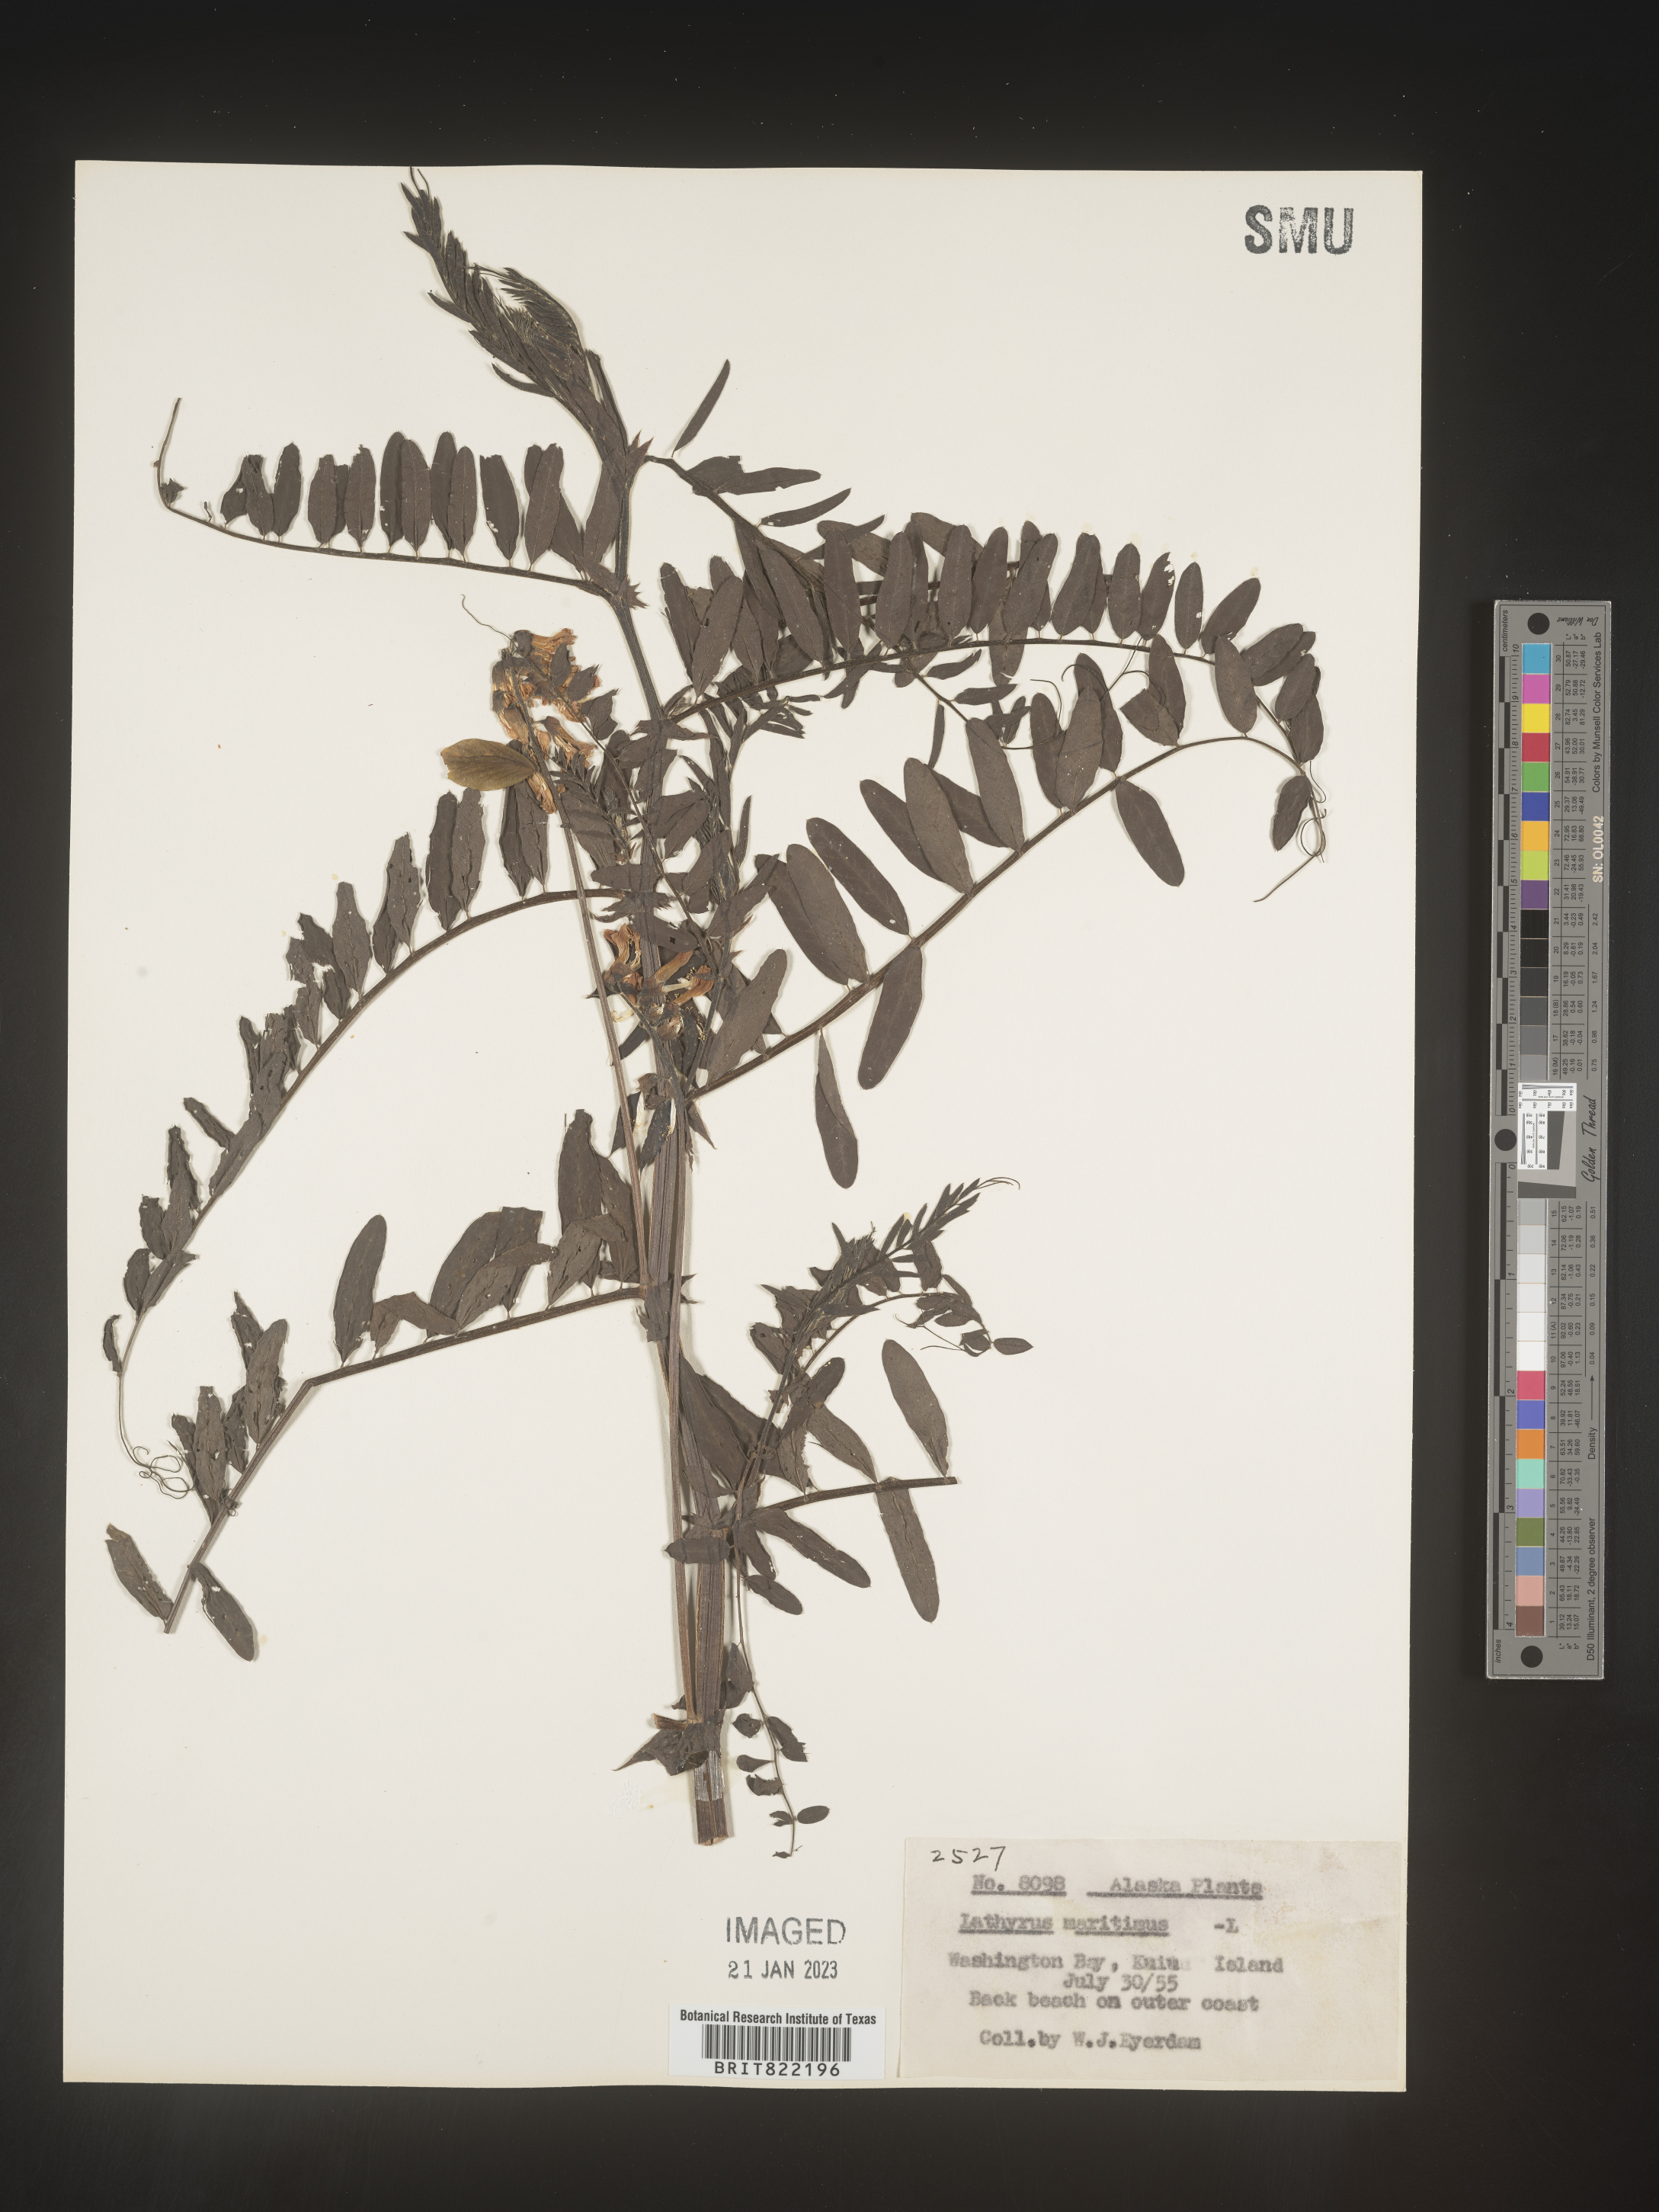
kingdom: Plantae
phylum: Tracheophyta
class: Magnoliopsida
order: Fabales
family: Fabaceae
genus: Lathyrus
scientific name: Lathyrus
